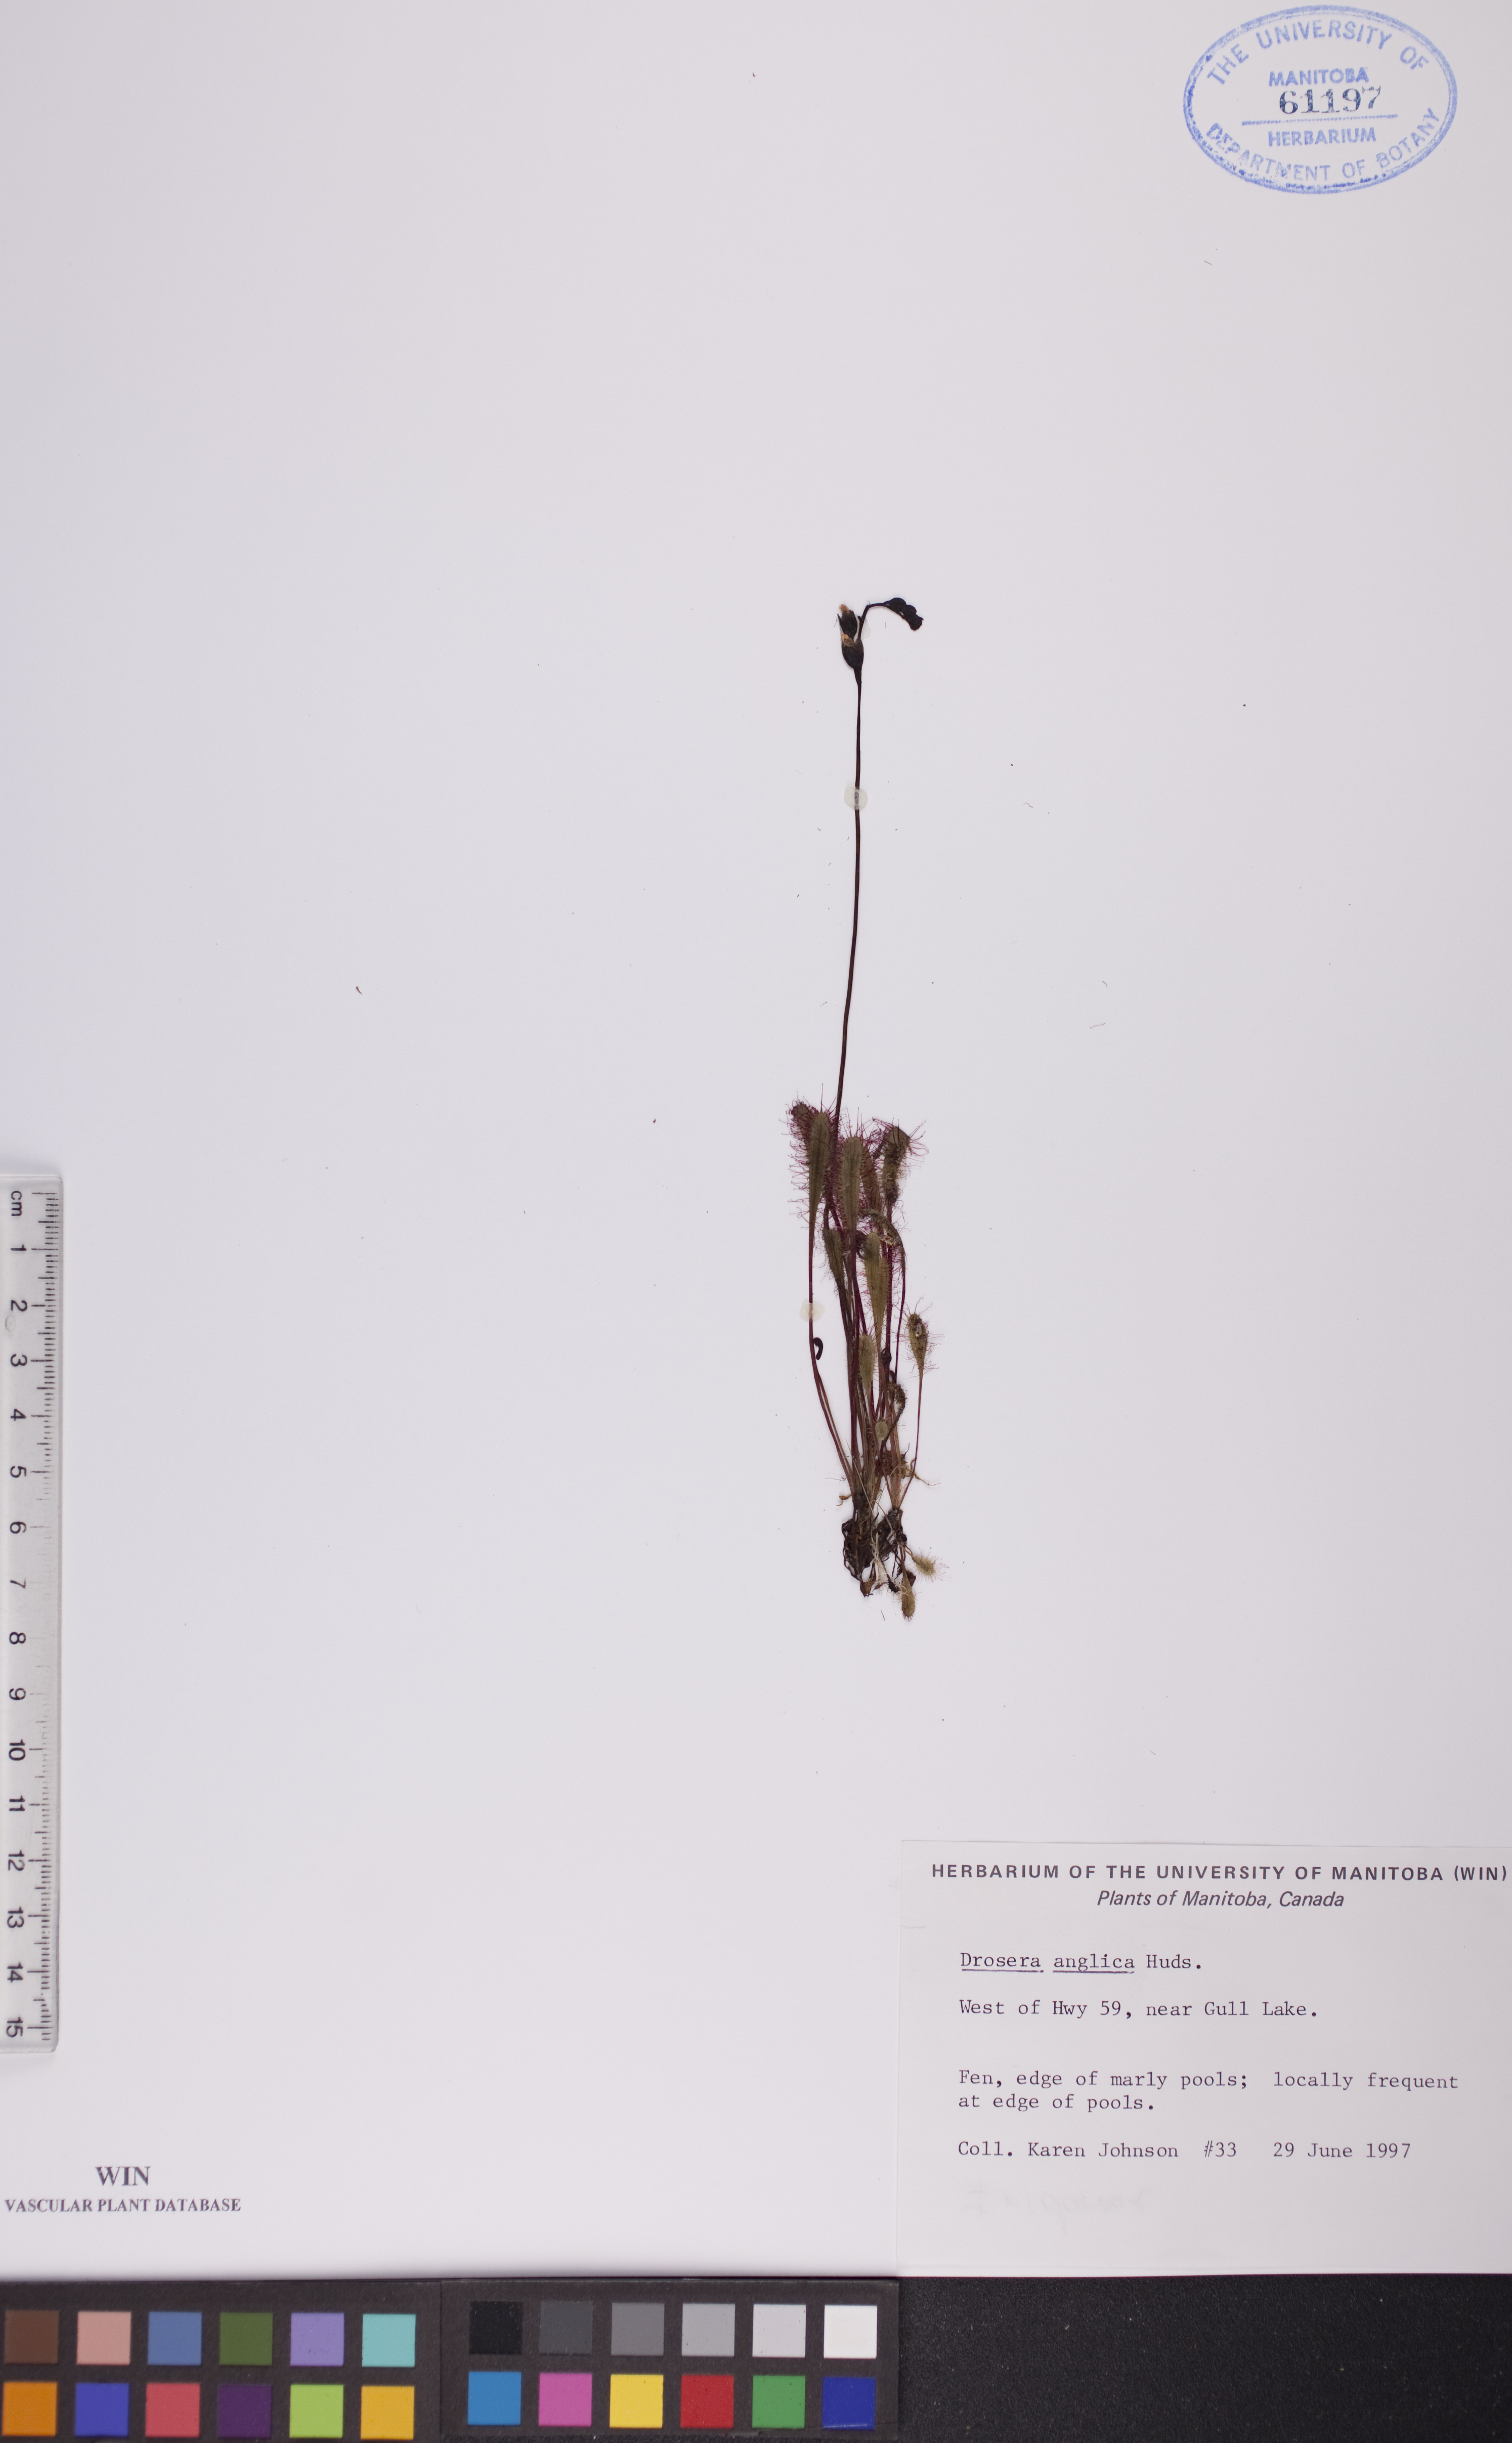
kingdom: Plantae
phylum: Tracheophyta
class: Magnoliopsida
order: Caryophyllales
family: Droseraceae
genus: Drosera
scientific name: Drosera anglica
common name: Great sundew
